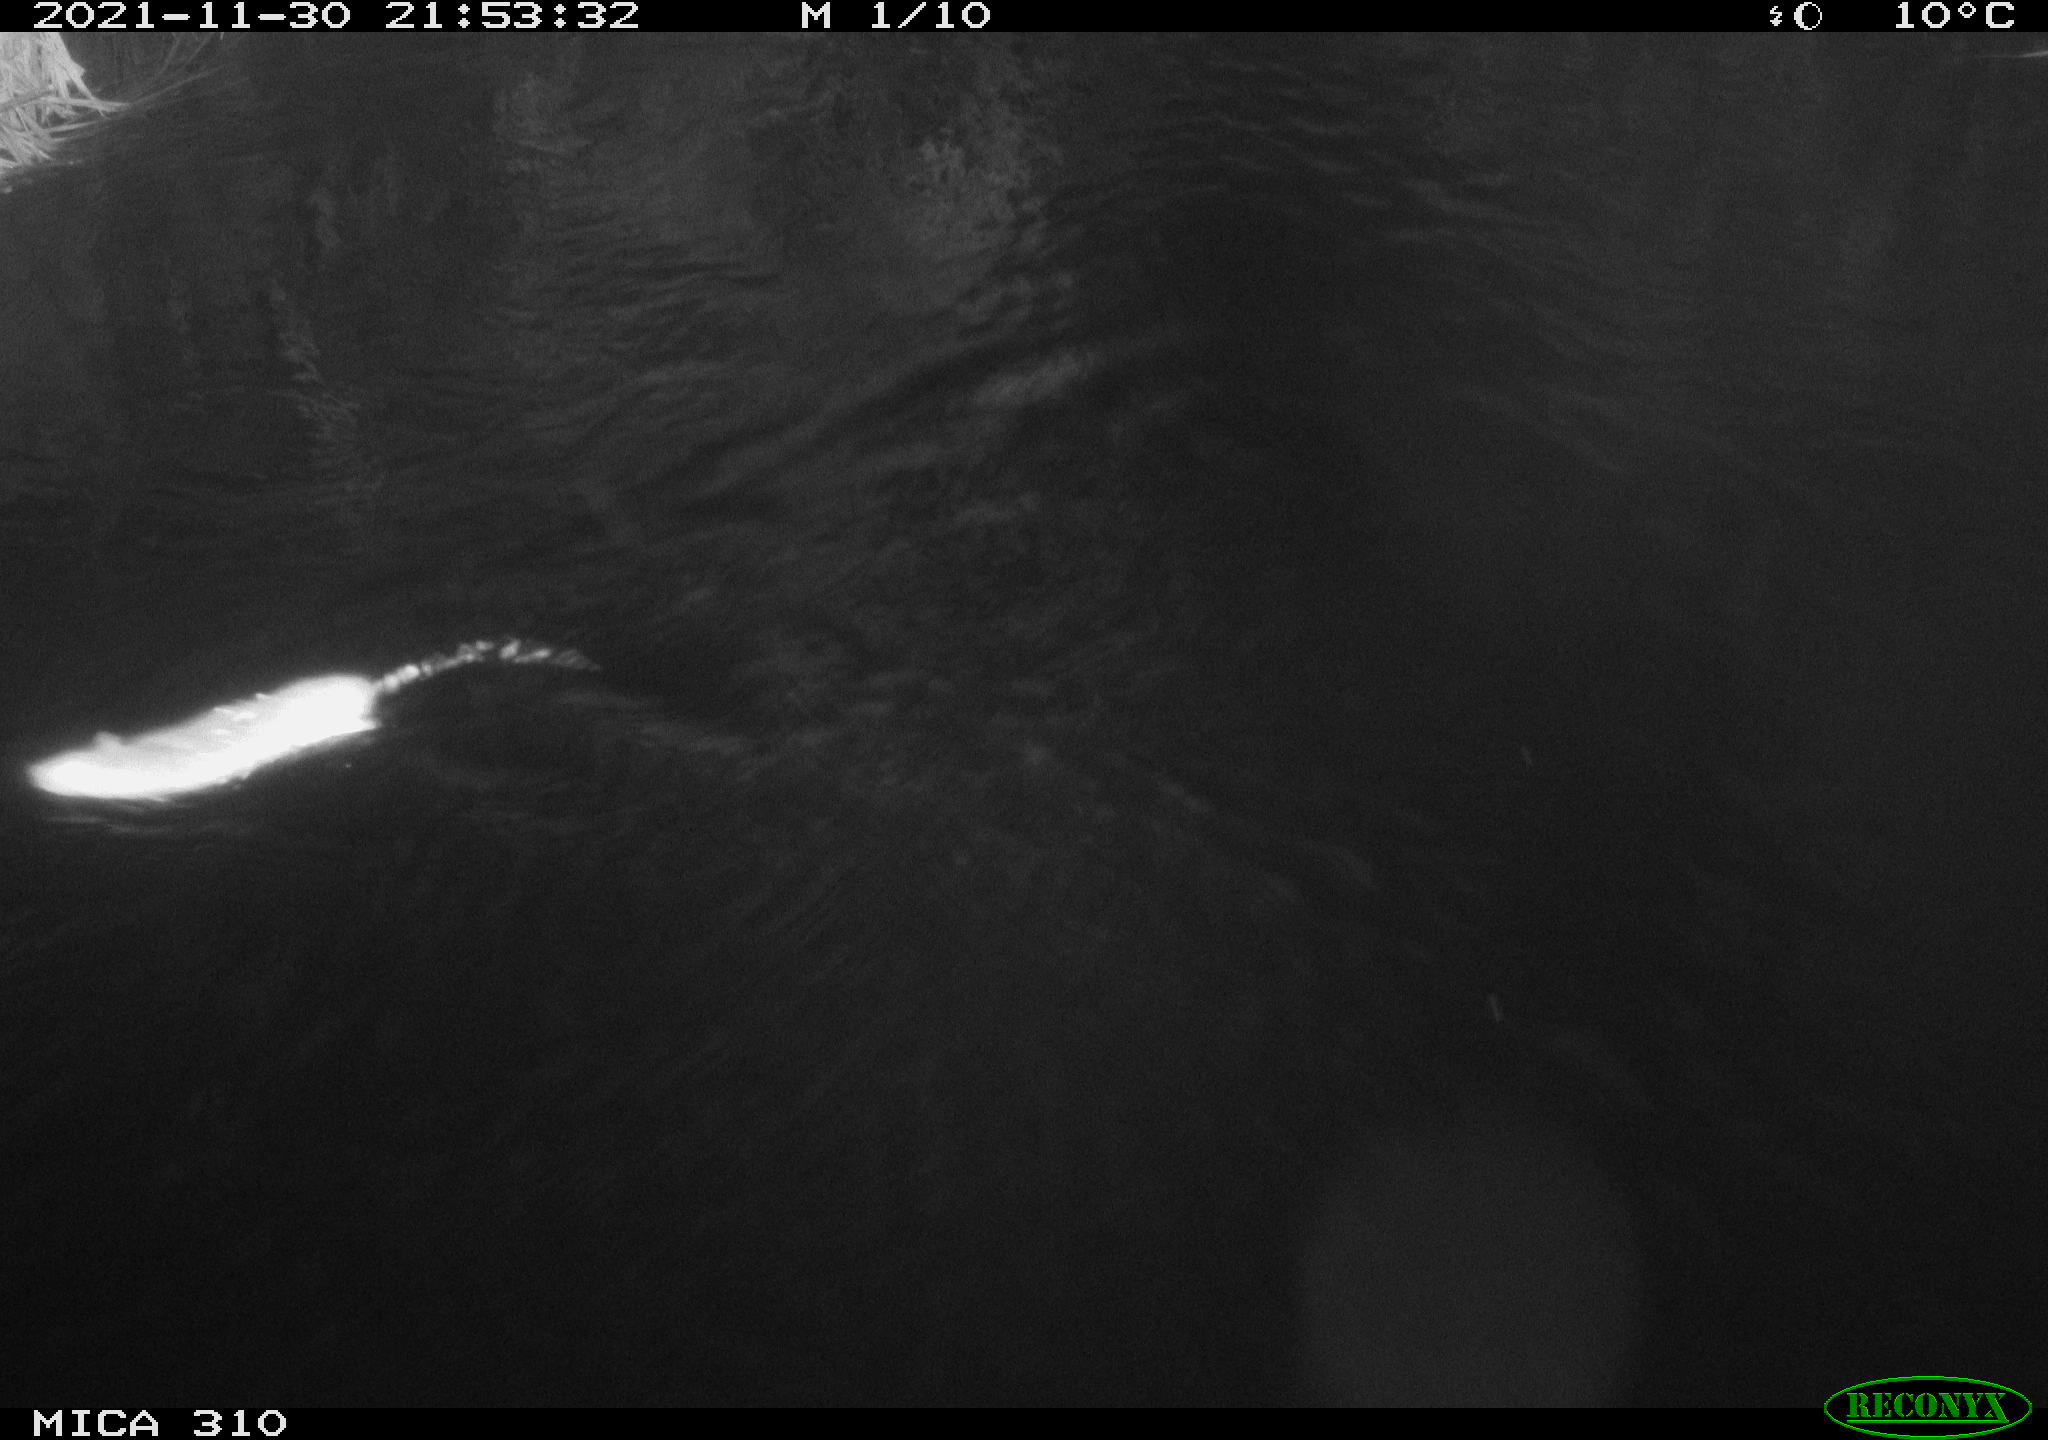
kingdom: Animalia
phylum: Chordata
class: Mammalia
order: Rodentia
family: Cricetidae
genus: Ondatra
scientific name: Ondatra zibethicus
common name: Muskrat
